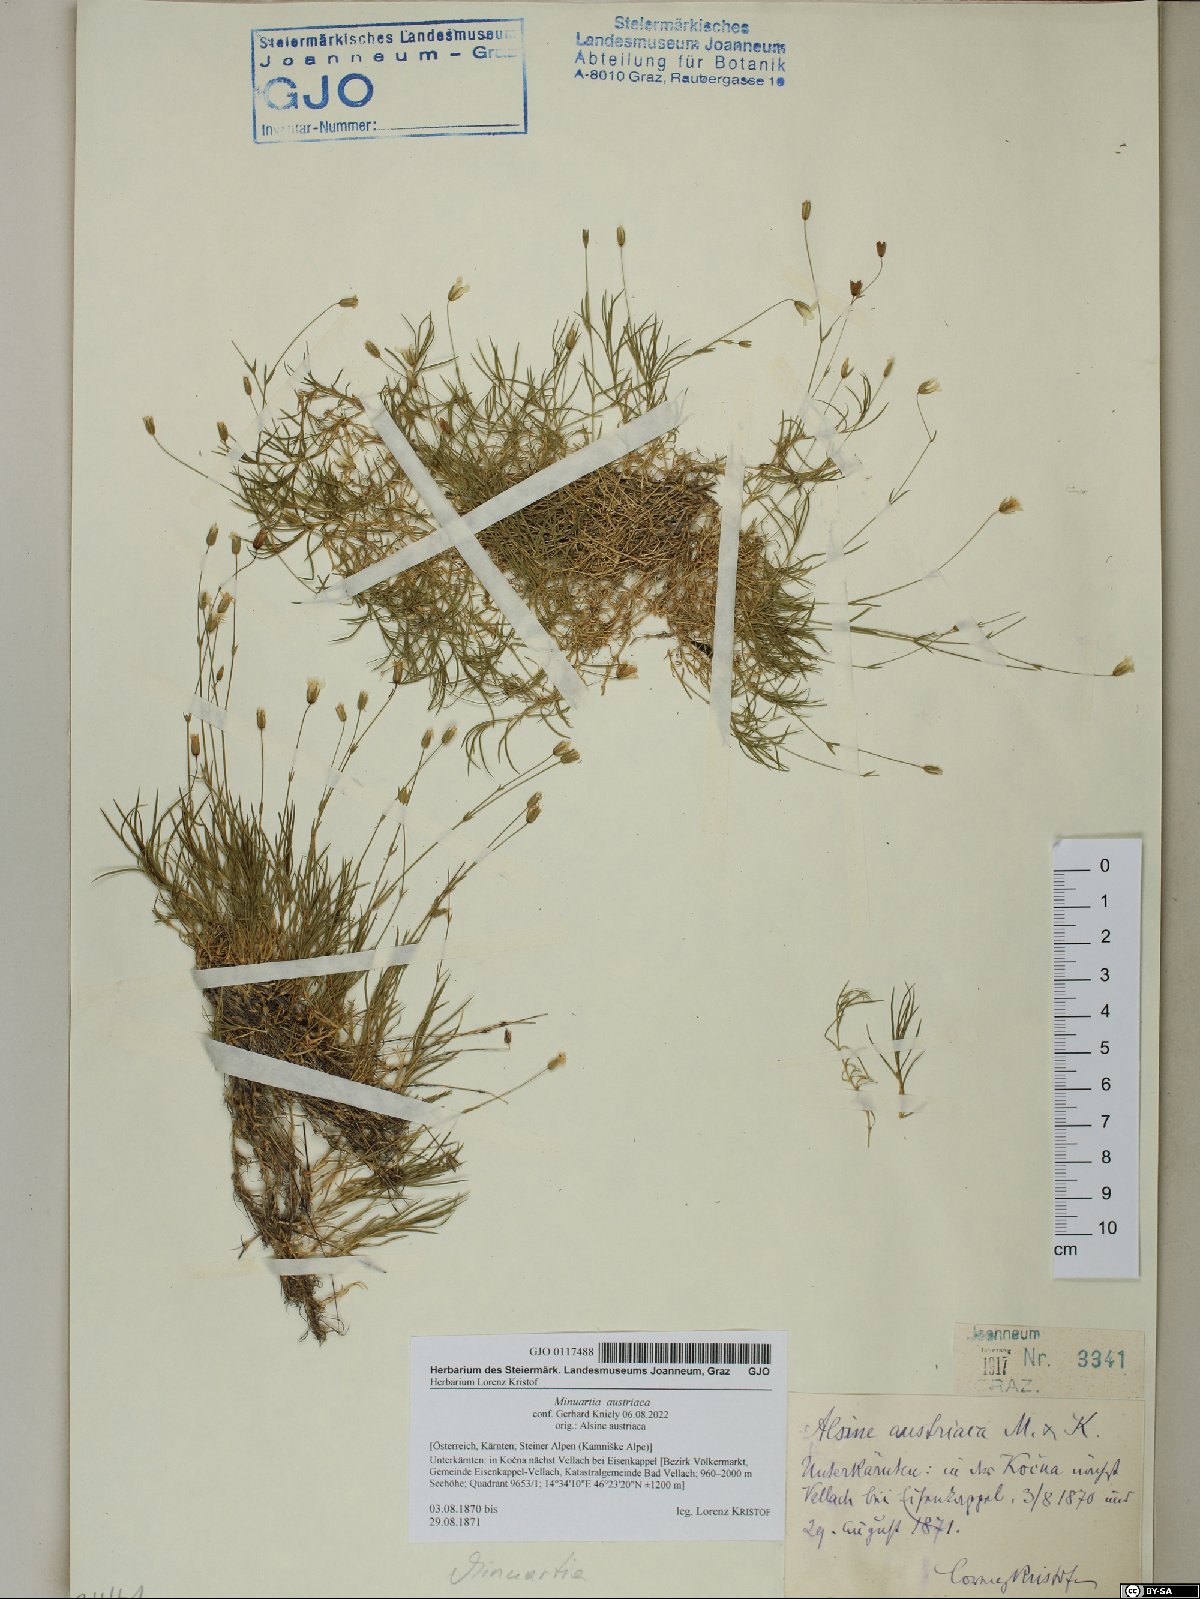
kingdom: Plantae
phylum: Tracheophyta
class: Magnoliopsida
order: Caryophyllales
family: Caryophyllaceae
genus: Sabulina
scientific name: Sabulina austriaca
